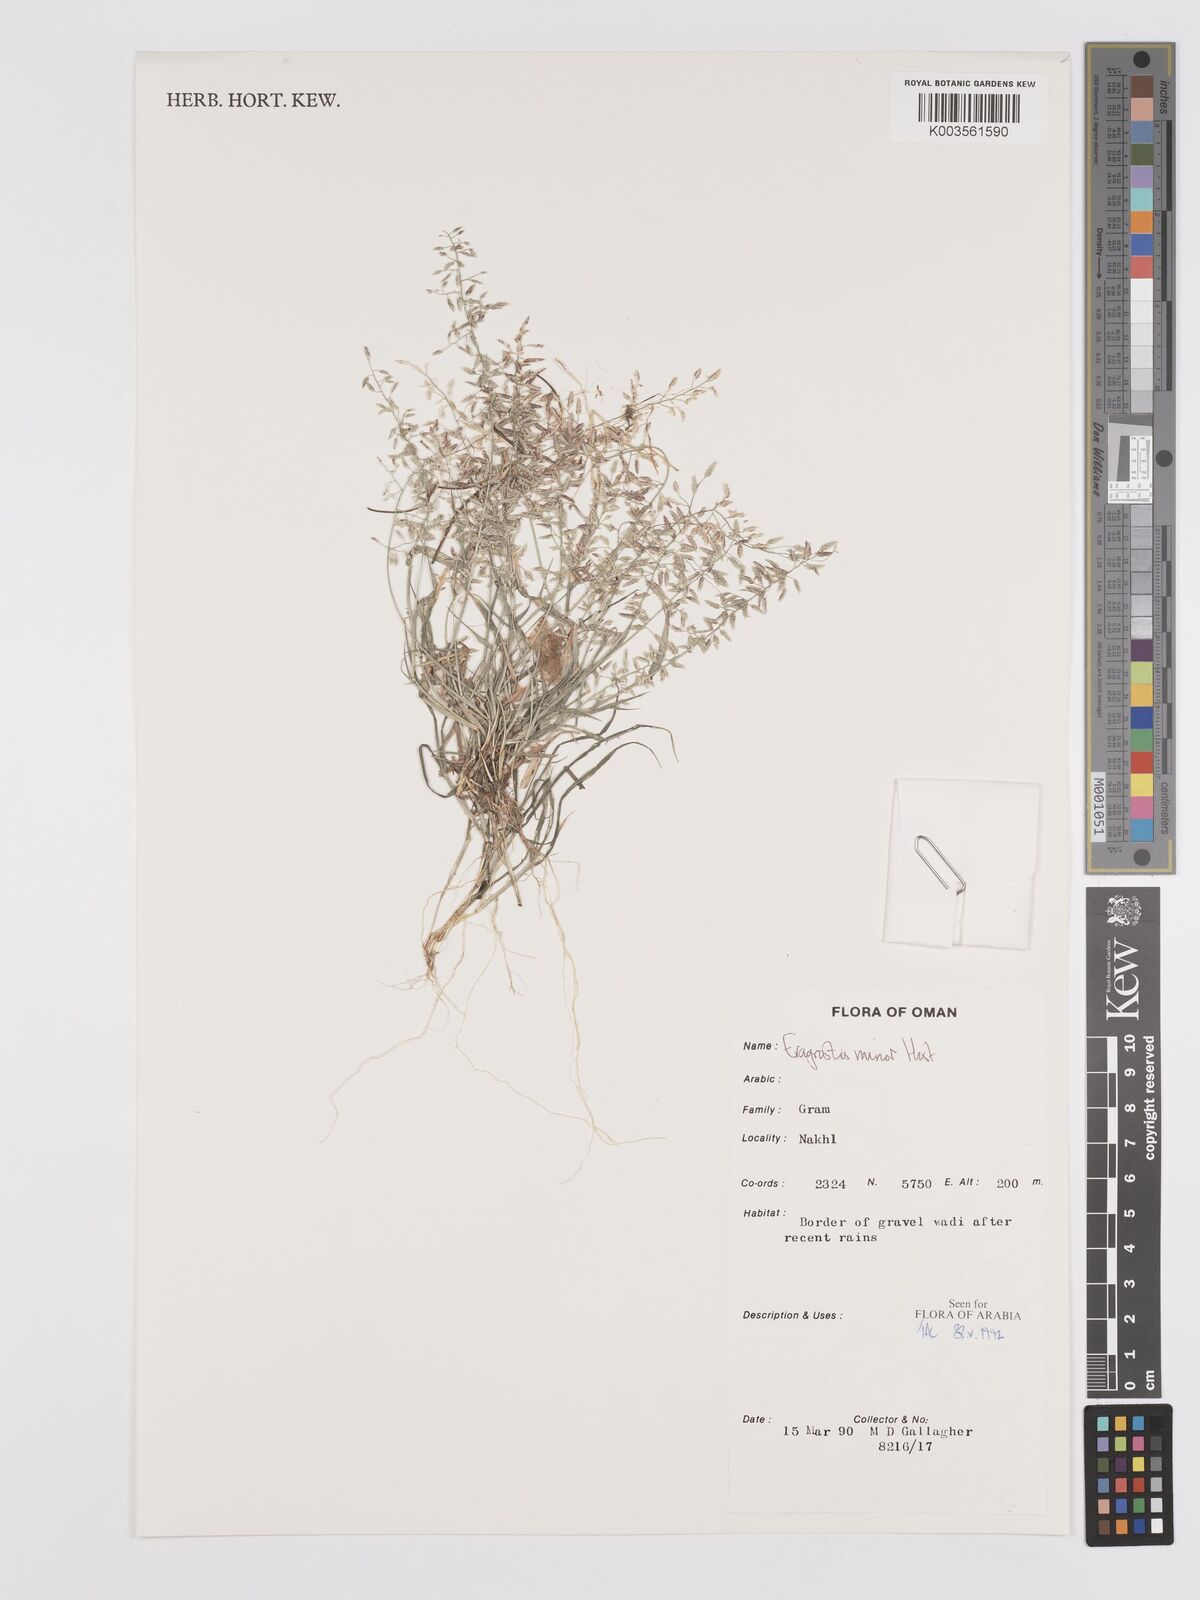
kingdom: Plantae
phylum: Tracheophyta
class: Liliopsida
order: Poales
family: Poaceae
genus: Eragrostis
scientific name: Eragrostis minor
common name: Small love-grass
